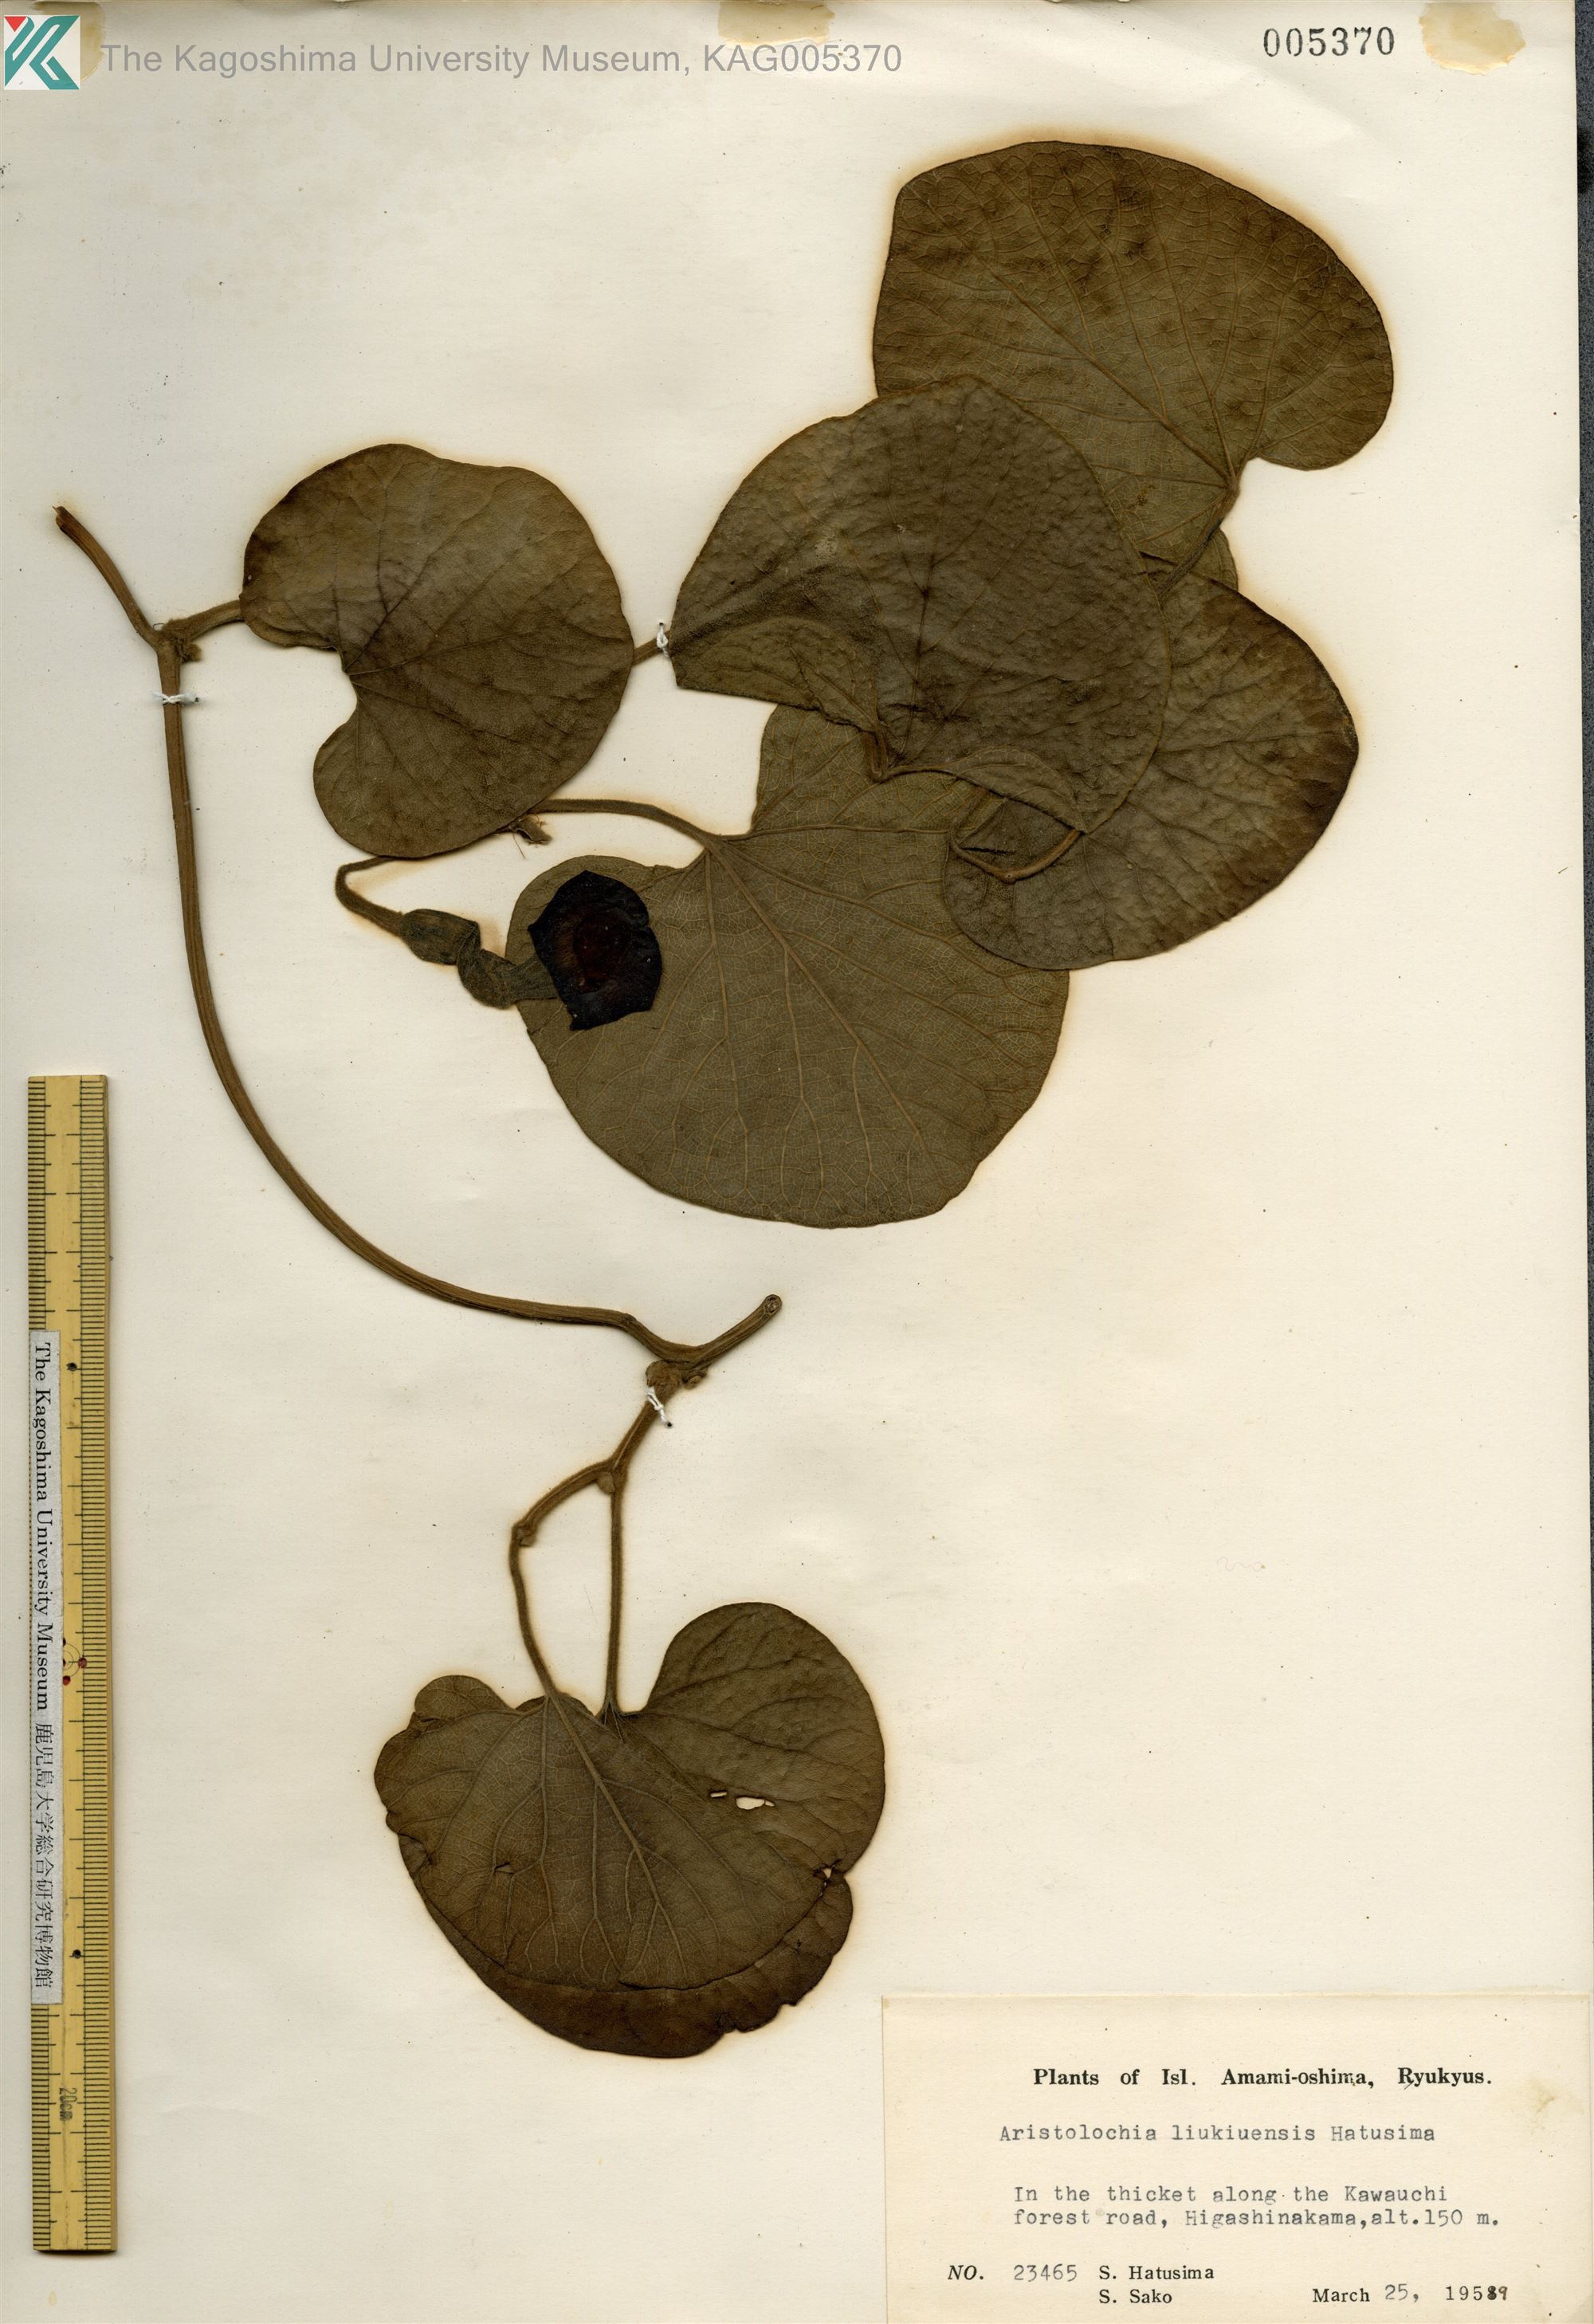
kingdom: Plantae
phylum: Tracheophyta
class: Magnoliopsida
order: Piperales
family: Aristolochiaceae
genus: Isotrema
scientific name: Isotrema liukiuense
